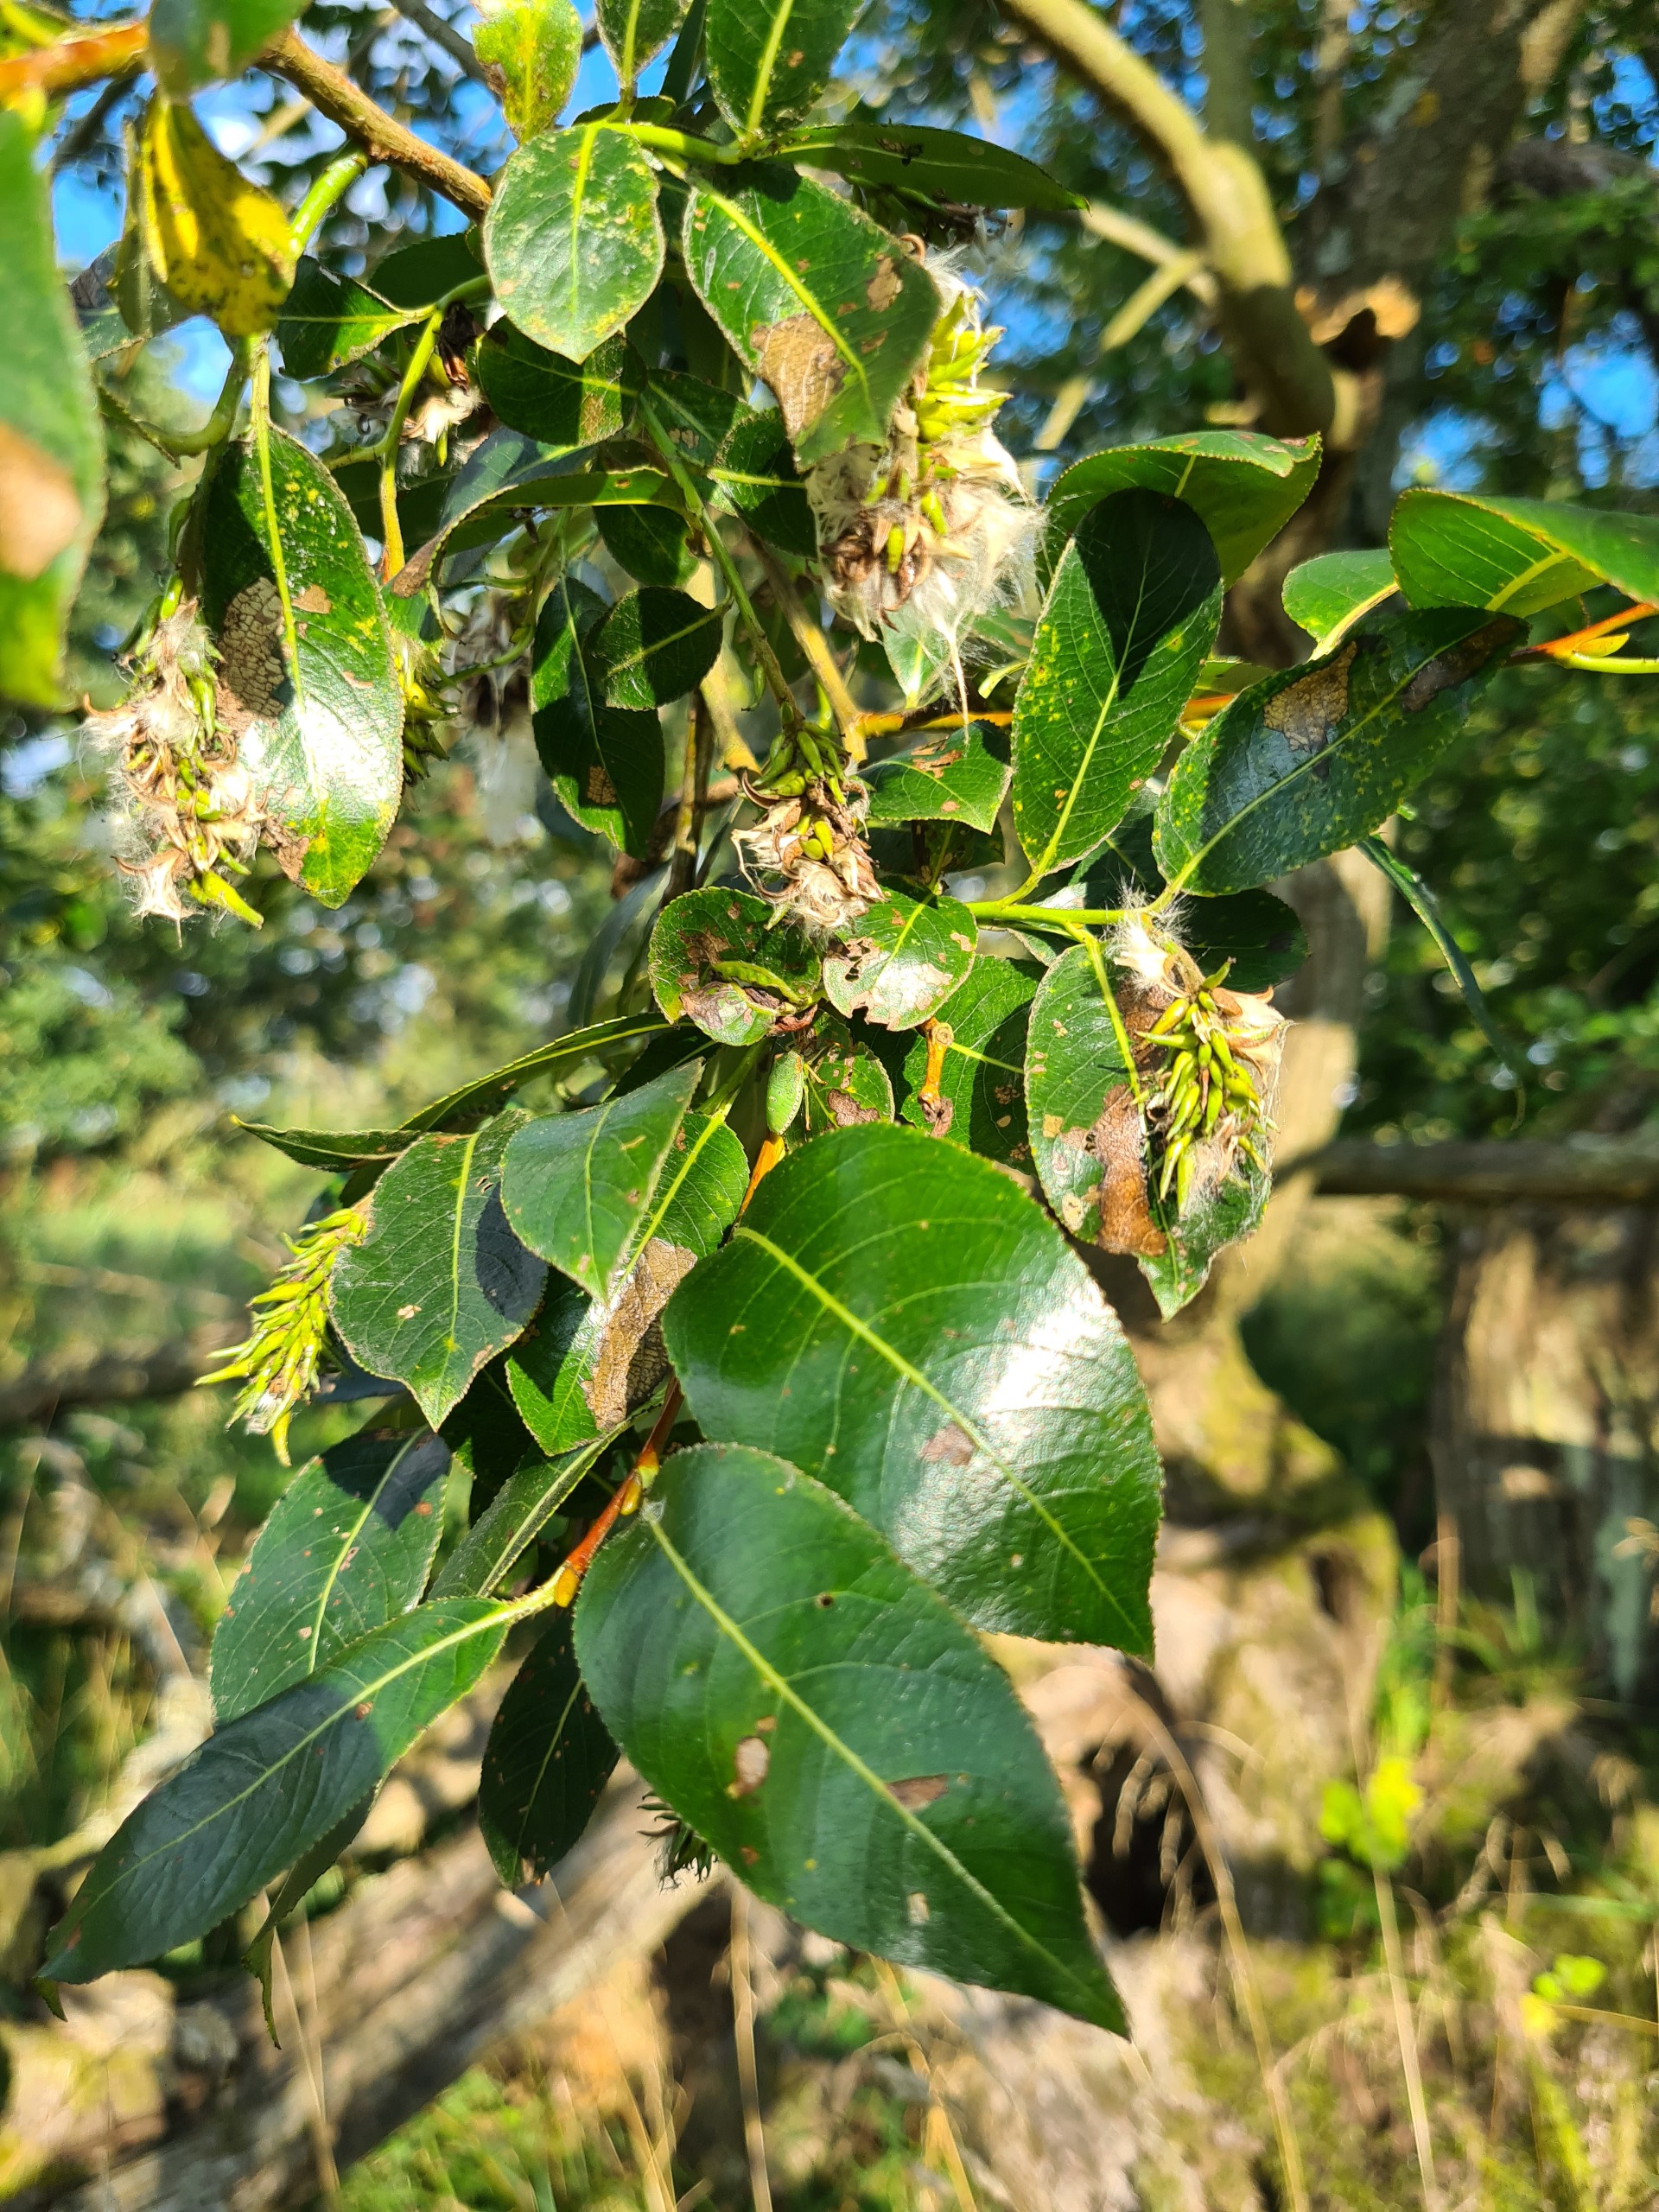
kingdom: Plantae
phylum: Tracheophyta
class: Magnoliopsida
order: Malpighiales
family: Salicaceae
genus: Salix
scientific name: Salix pentandra
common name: Femhannet pil
